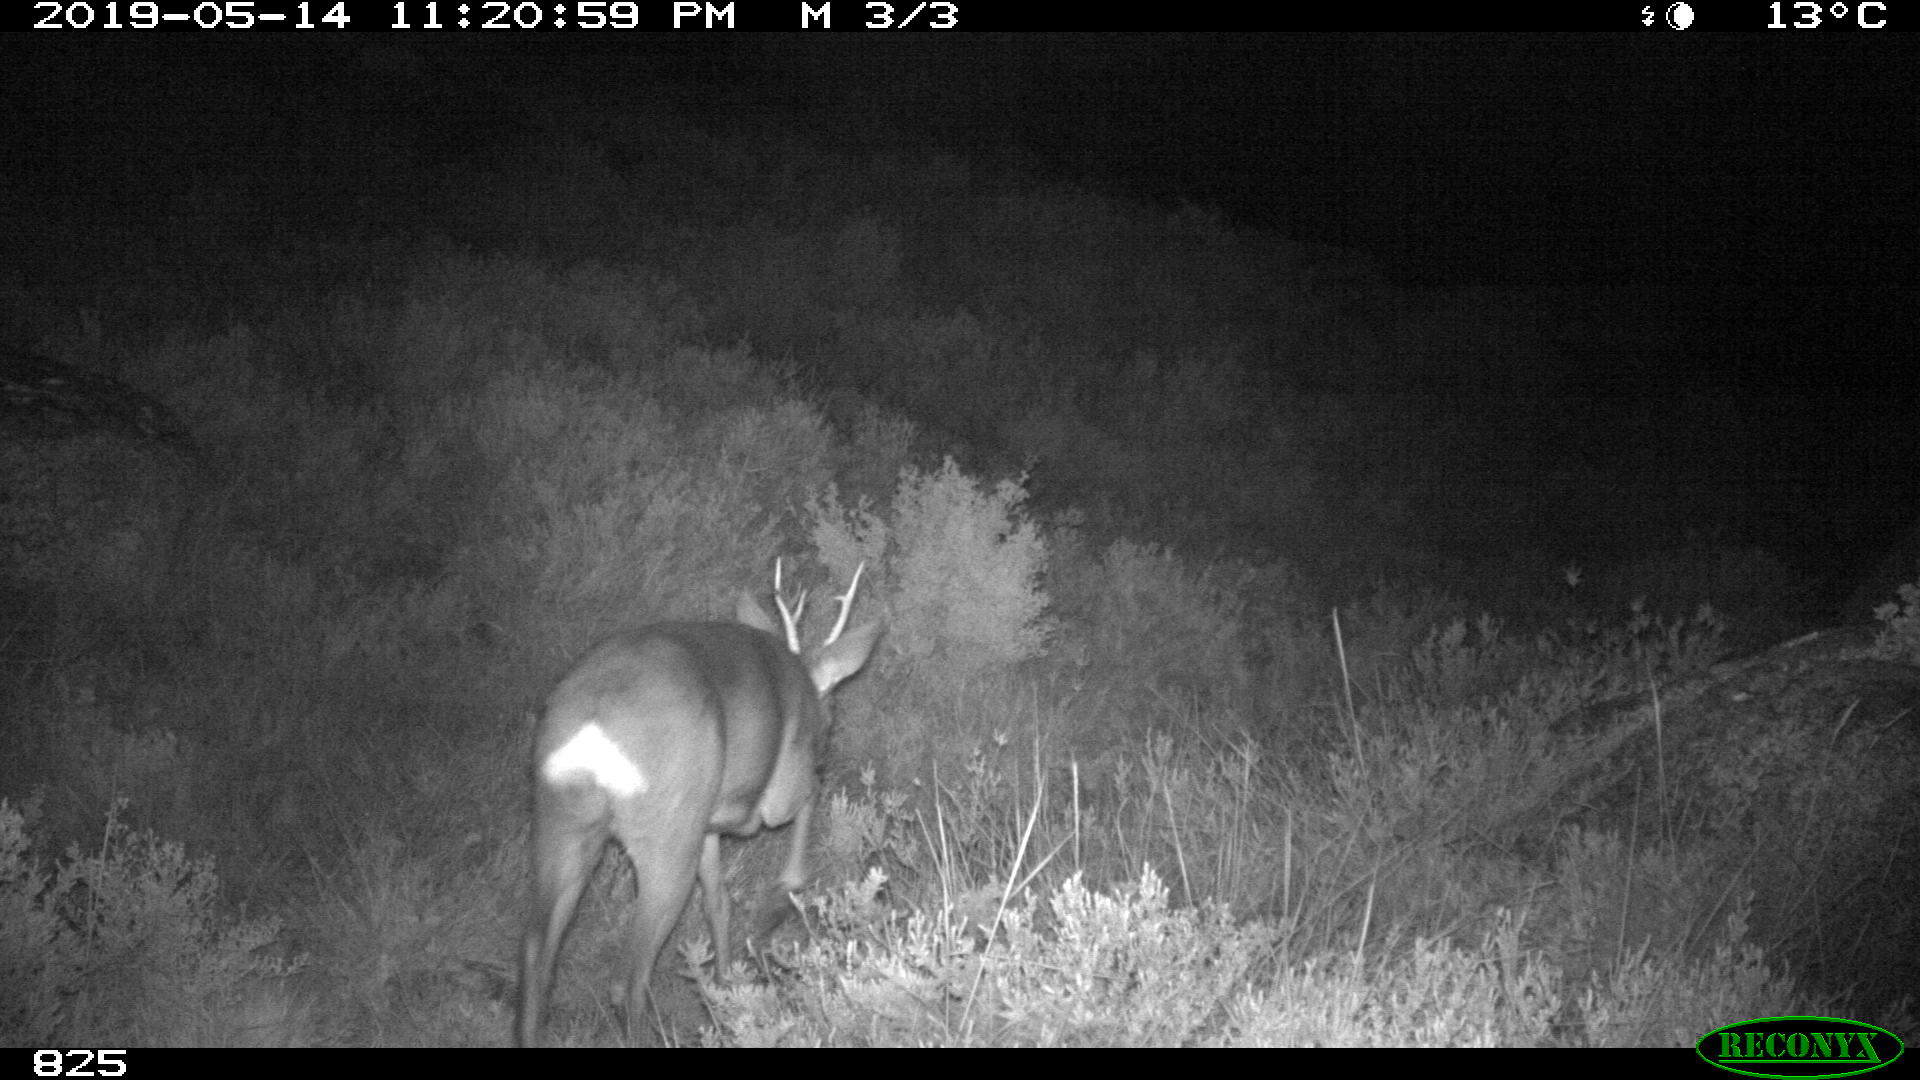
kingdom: Animalia
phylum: Chordata
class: Mammalia
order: Artiodactyla
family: Cervidae
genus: Capreolus
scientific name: Capreolus capreolus
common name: Western roe deer
